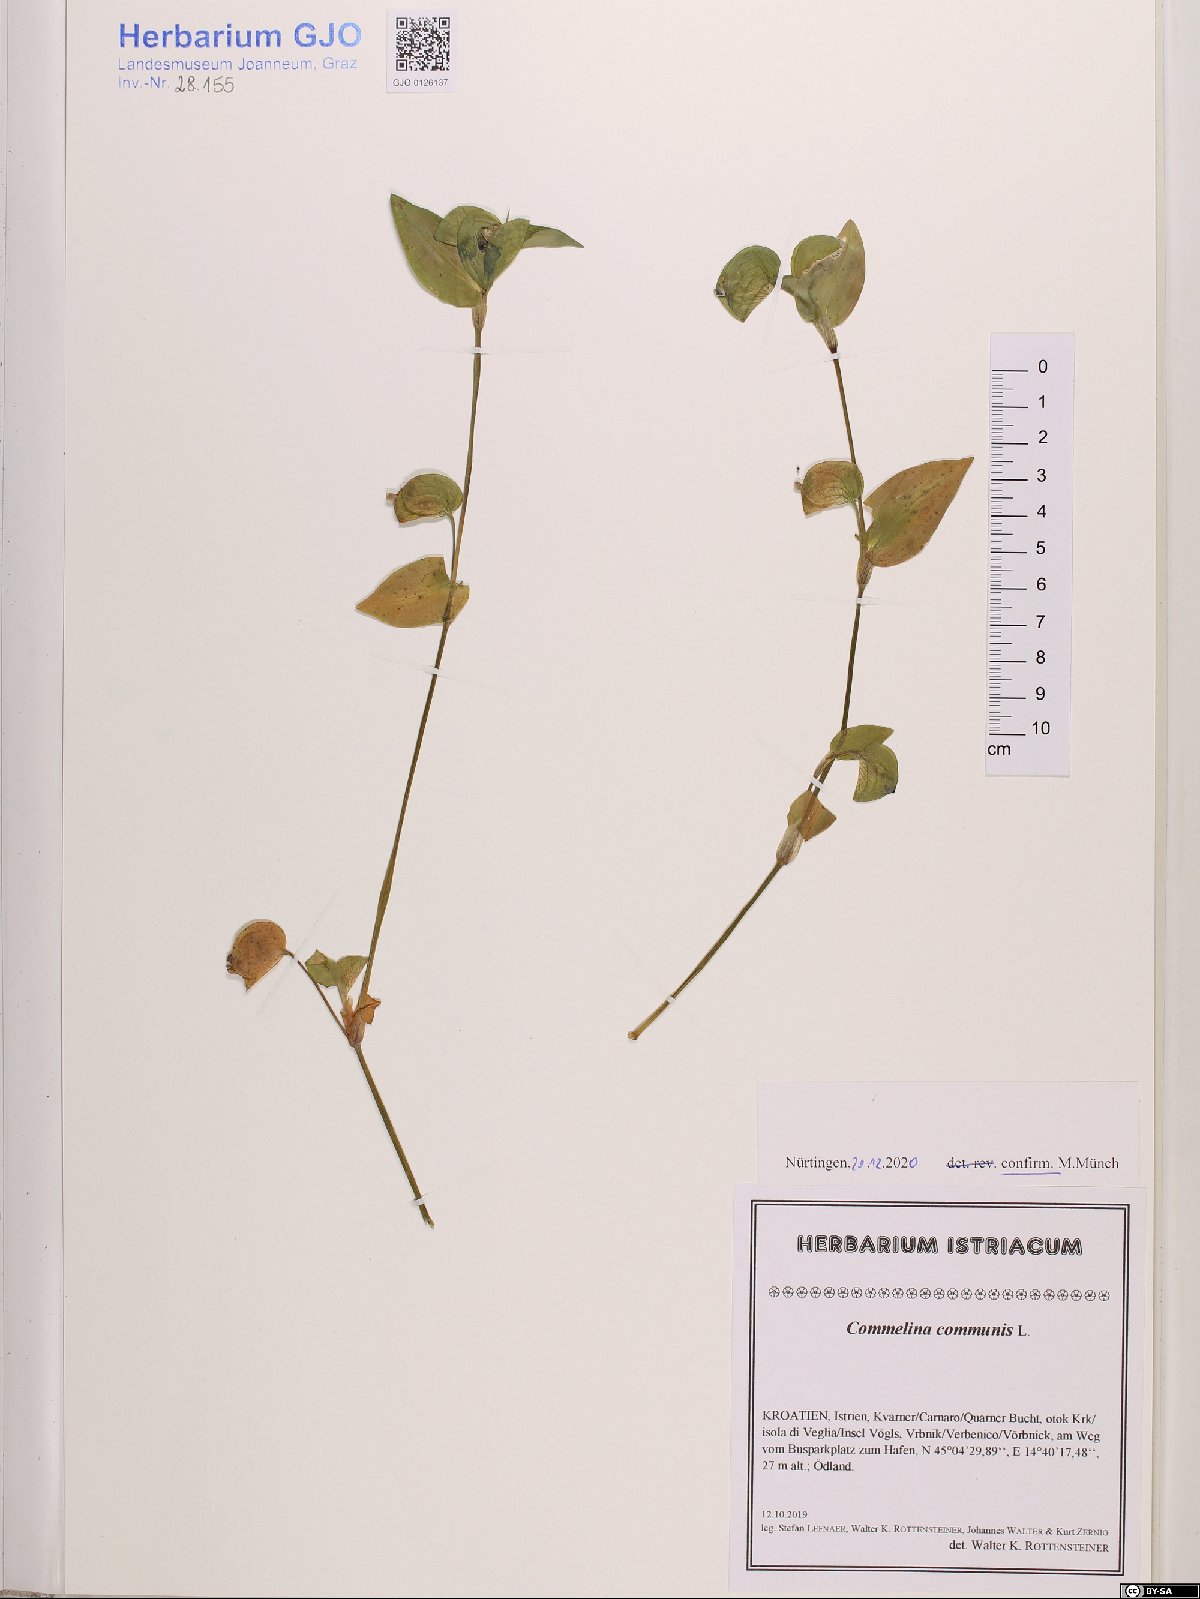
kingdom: Plantae
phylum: Tracheophyta
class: Liliopsida
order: Commelinales
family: Commelinaceae
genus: Commelina
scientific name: Commelina communis
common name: Asiatic dayflower
